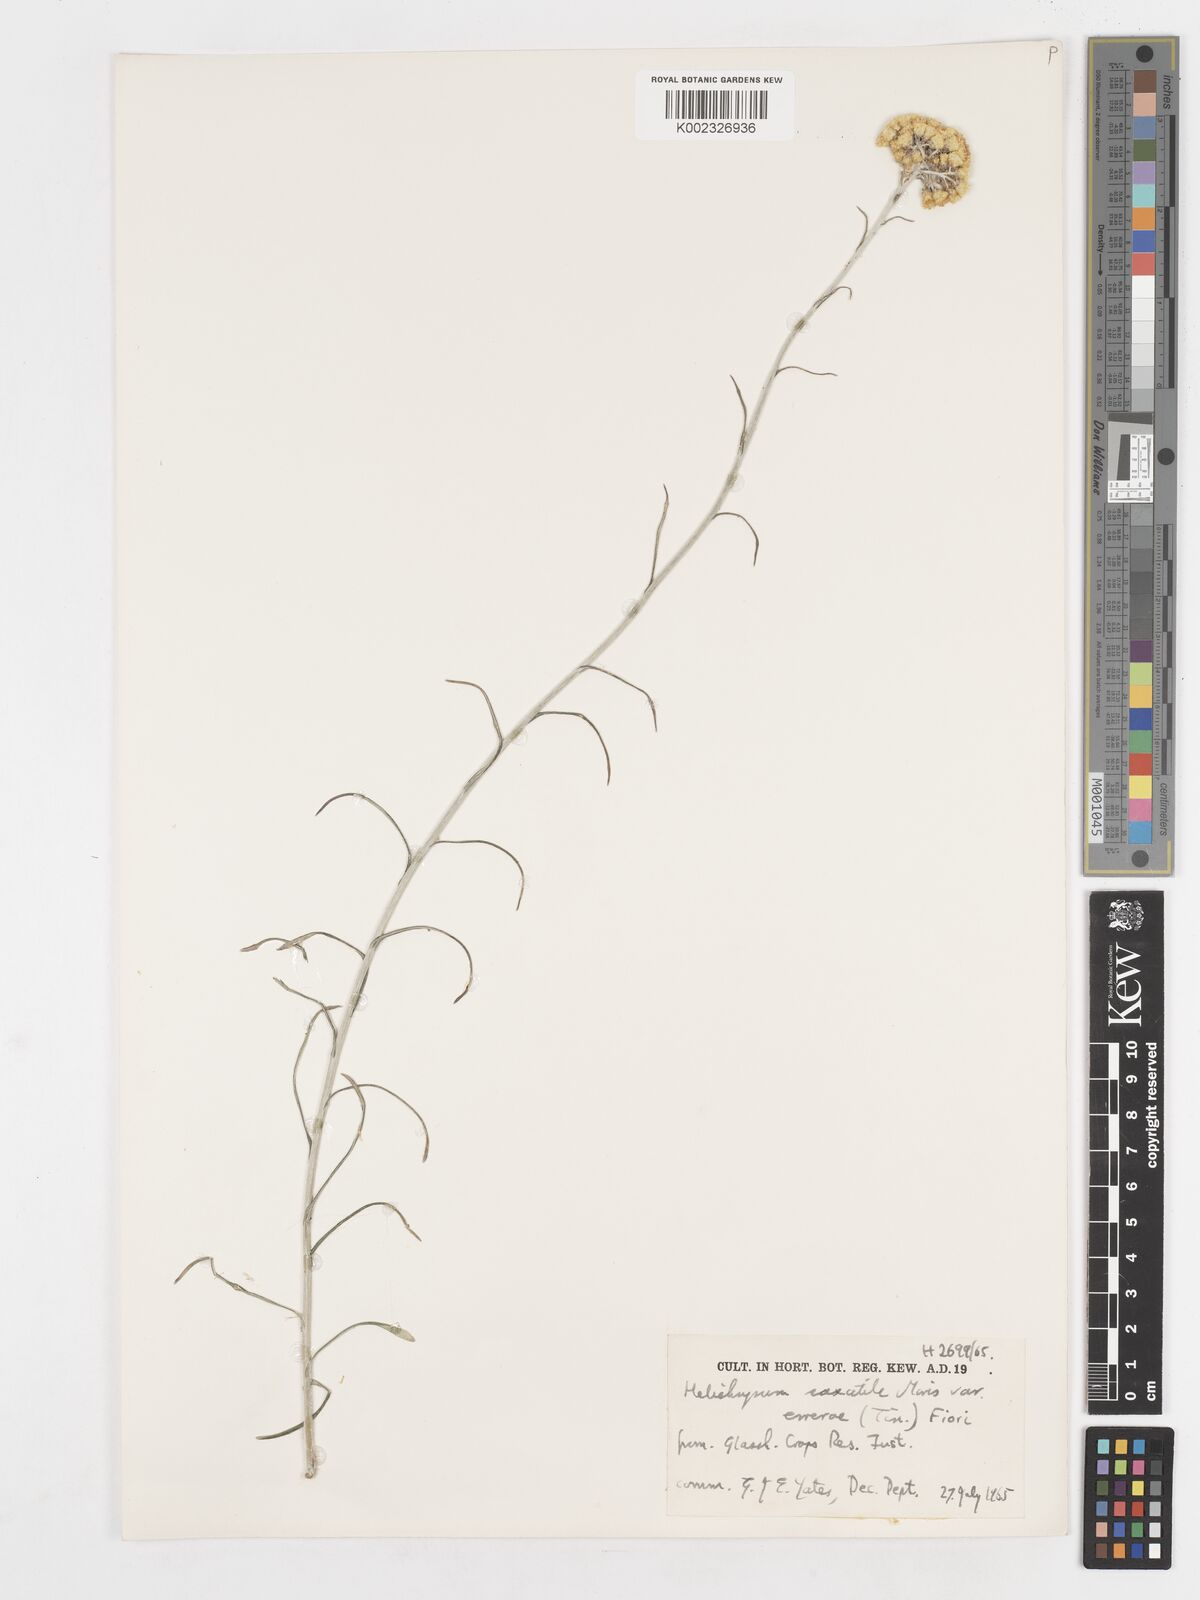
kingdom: Plantae
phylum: Tracheophyta
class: Magnoliopsida
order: Asterales
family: Asteraceae
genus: Helichrysum
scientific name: Helichrysum italicum
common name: Curryplant
